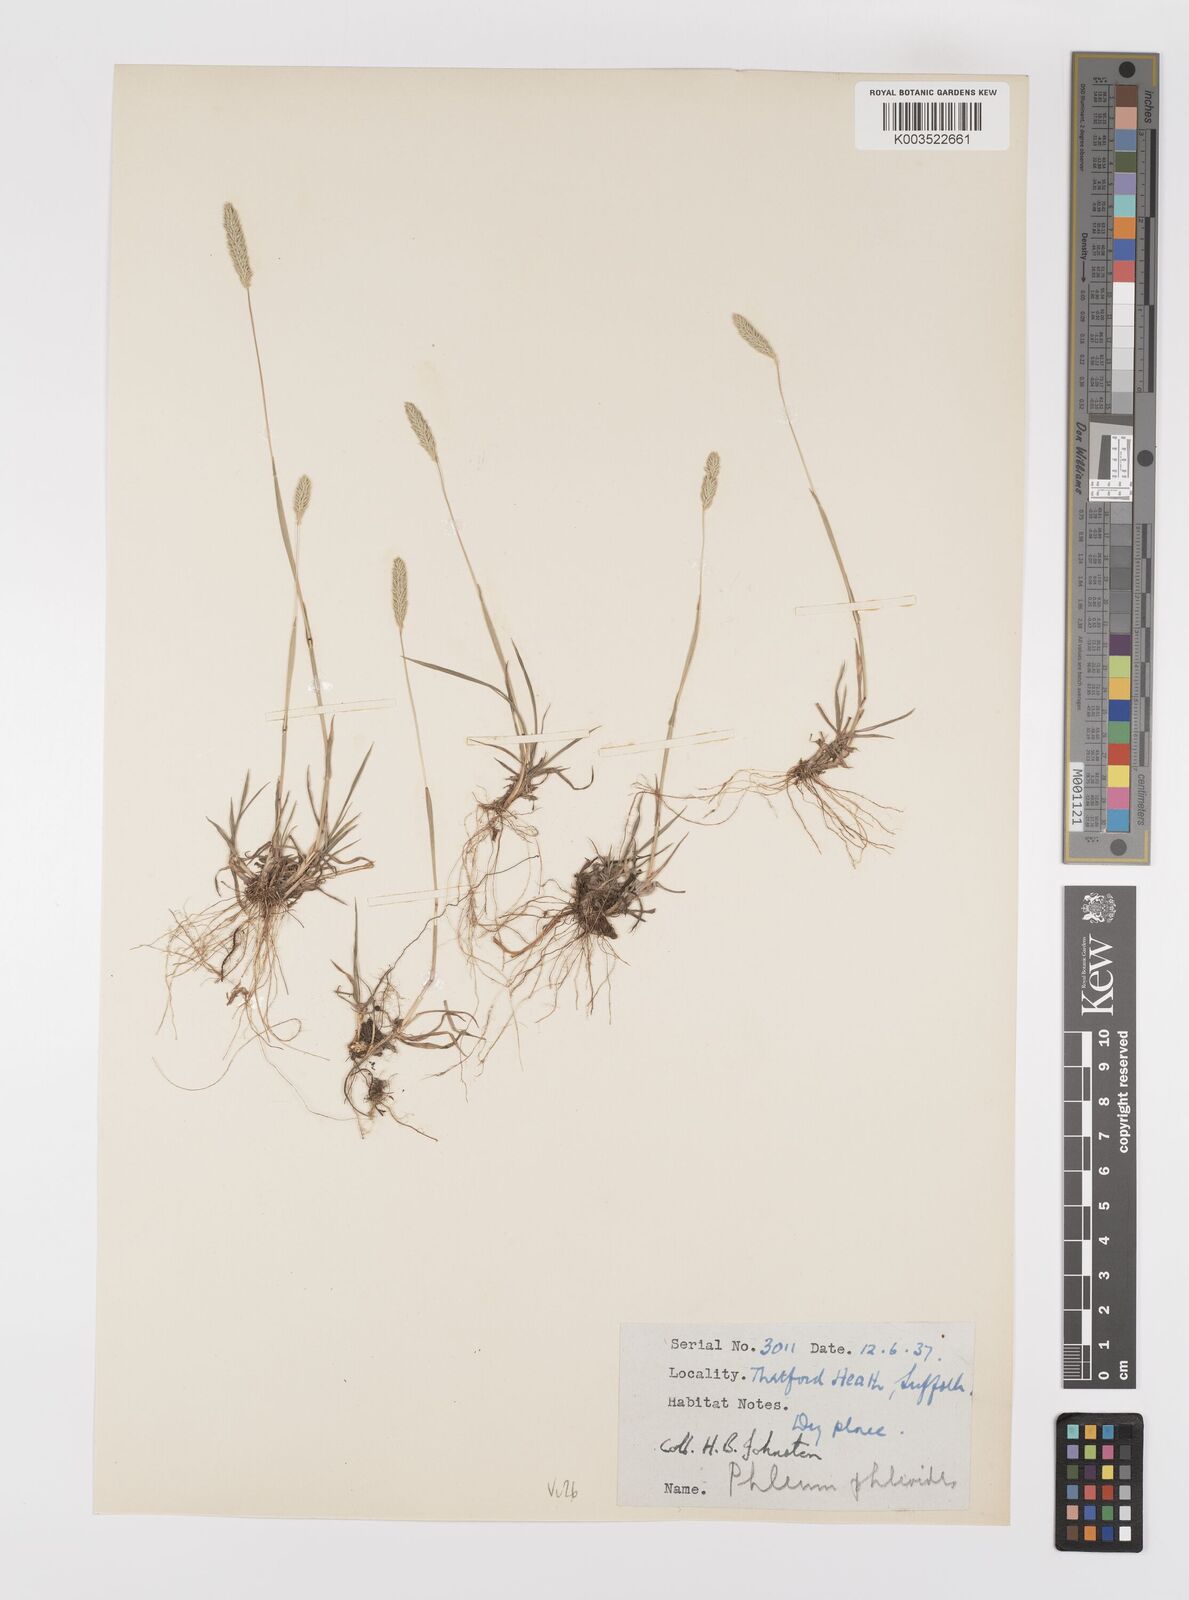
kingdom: Plantae
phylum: Tracheophyta
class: Liliopsida
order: Poales
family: Poaceae
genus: Phleum
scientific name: Phleum phleoides
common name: Purple-stem cat's-tail
